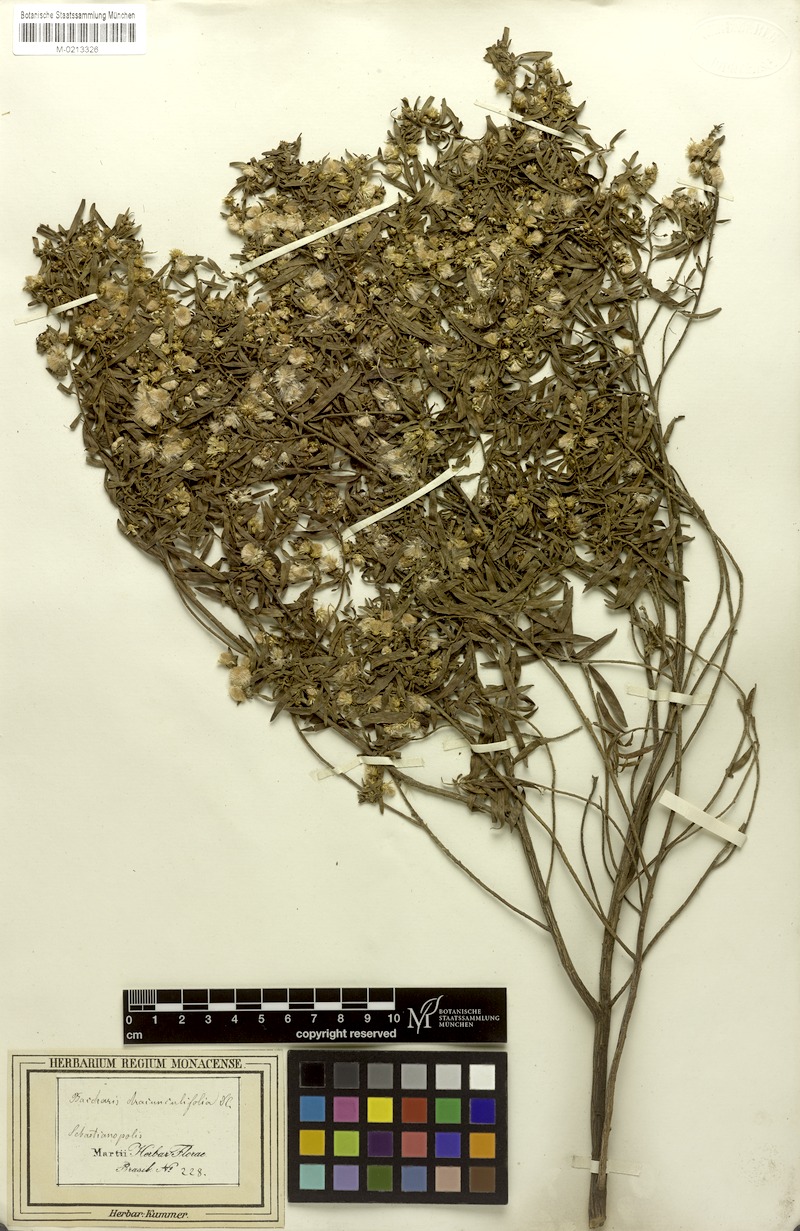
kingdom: Plantae
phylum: Tracheophyta
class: Magnoliopsida
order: Asterales
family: Asteraceae
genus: Baccharis
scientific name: Baccharis dracunculifolia
